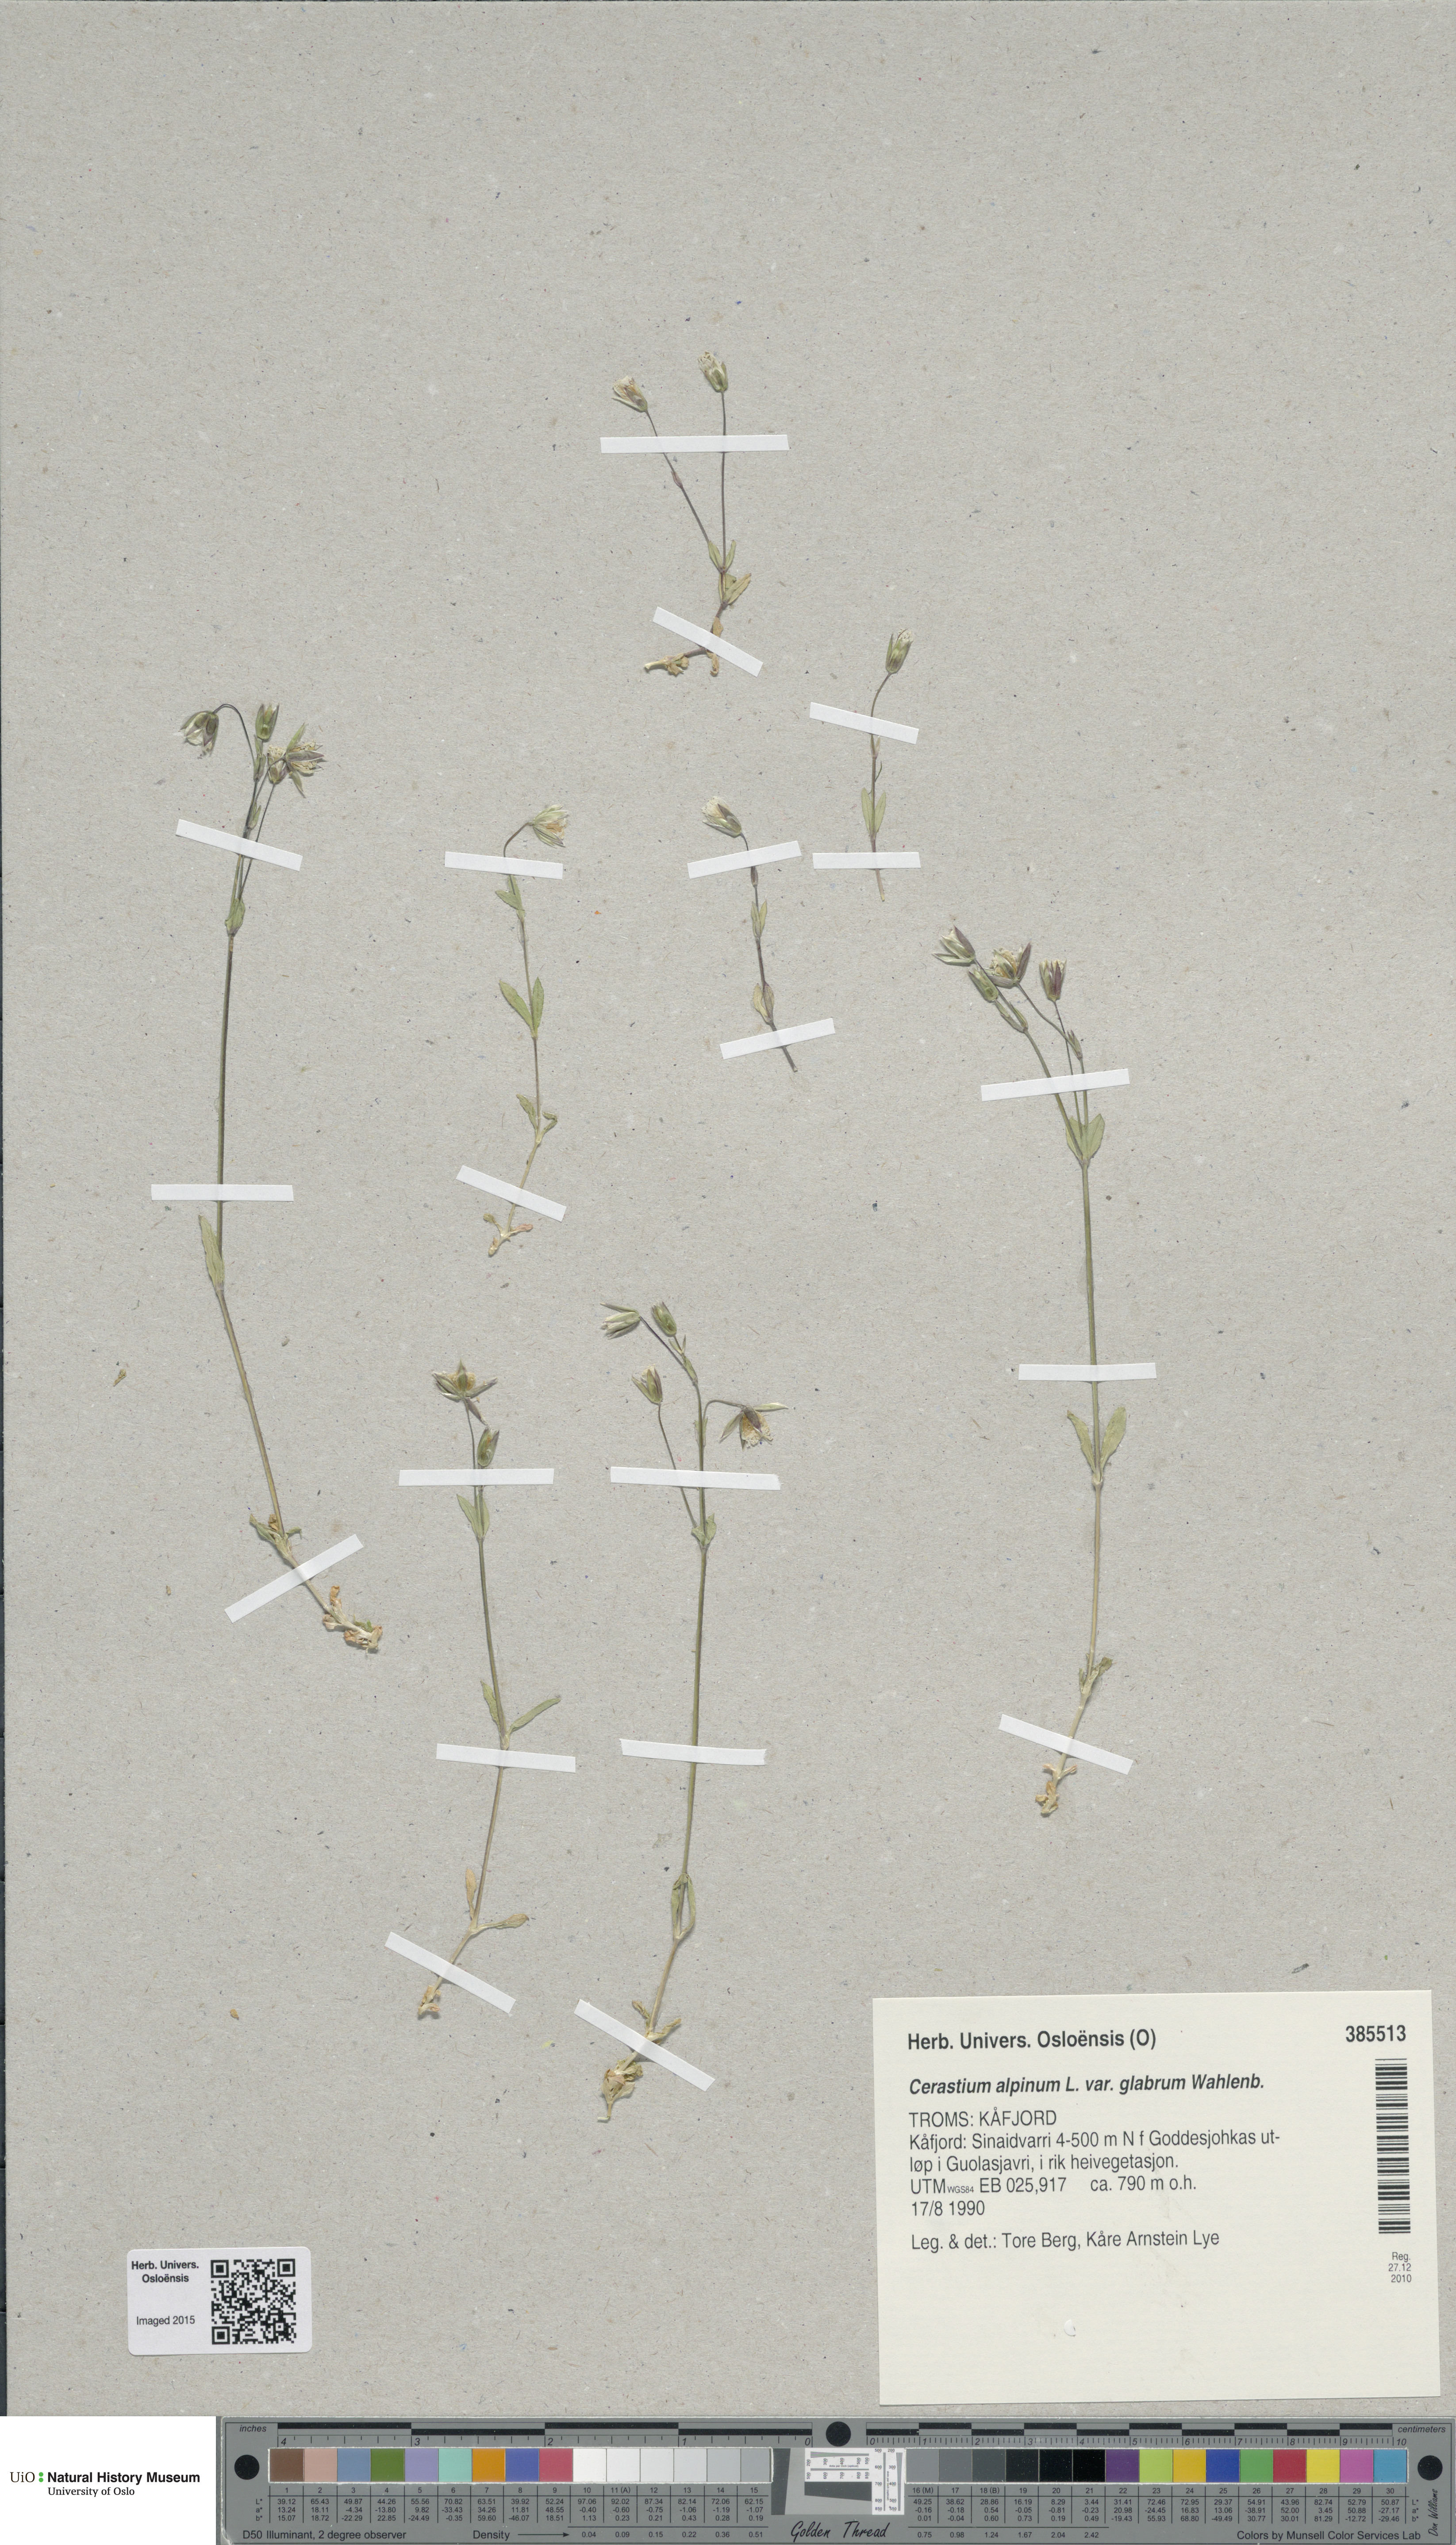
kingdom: Plantae
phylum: Tracheophyta
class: Magnoliopsida
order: Caryophyllales
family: Caryophyllaceae
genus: Cerastium
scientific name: Cerastium alpinum
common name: Alpine mouse-ear
